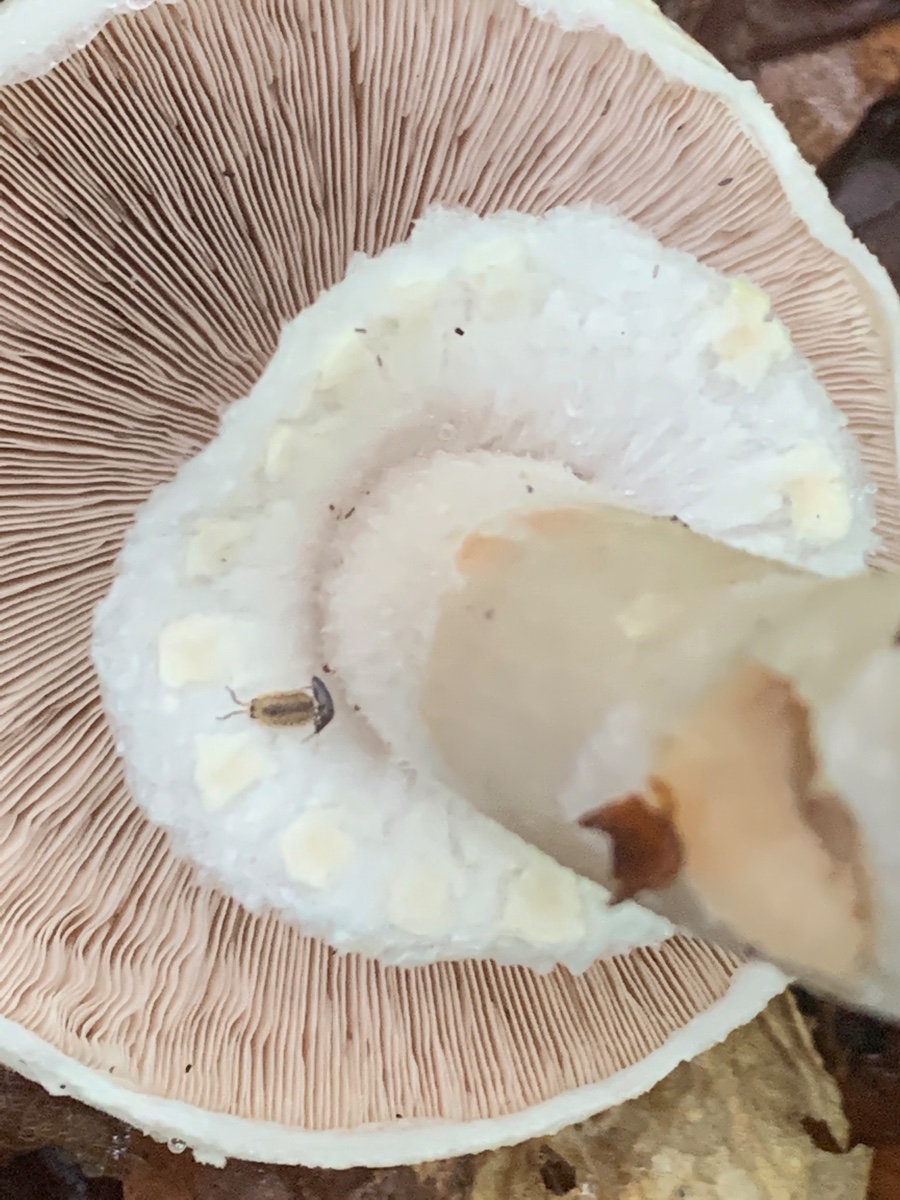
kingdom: Fungi
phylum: Basidiomycota
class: Agaricomycetes
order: Agaricales
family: Agaricaceae
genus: Agaricus
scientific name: Agaricus sylvicola
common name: skiveknoldet champignon
